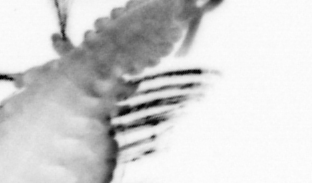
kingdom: Animalia
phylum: Annelida
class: Polychaeta
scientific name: Polychaeta
